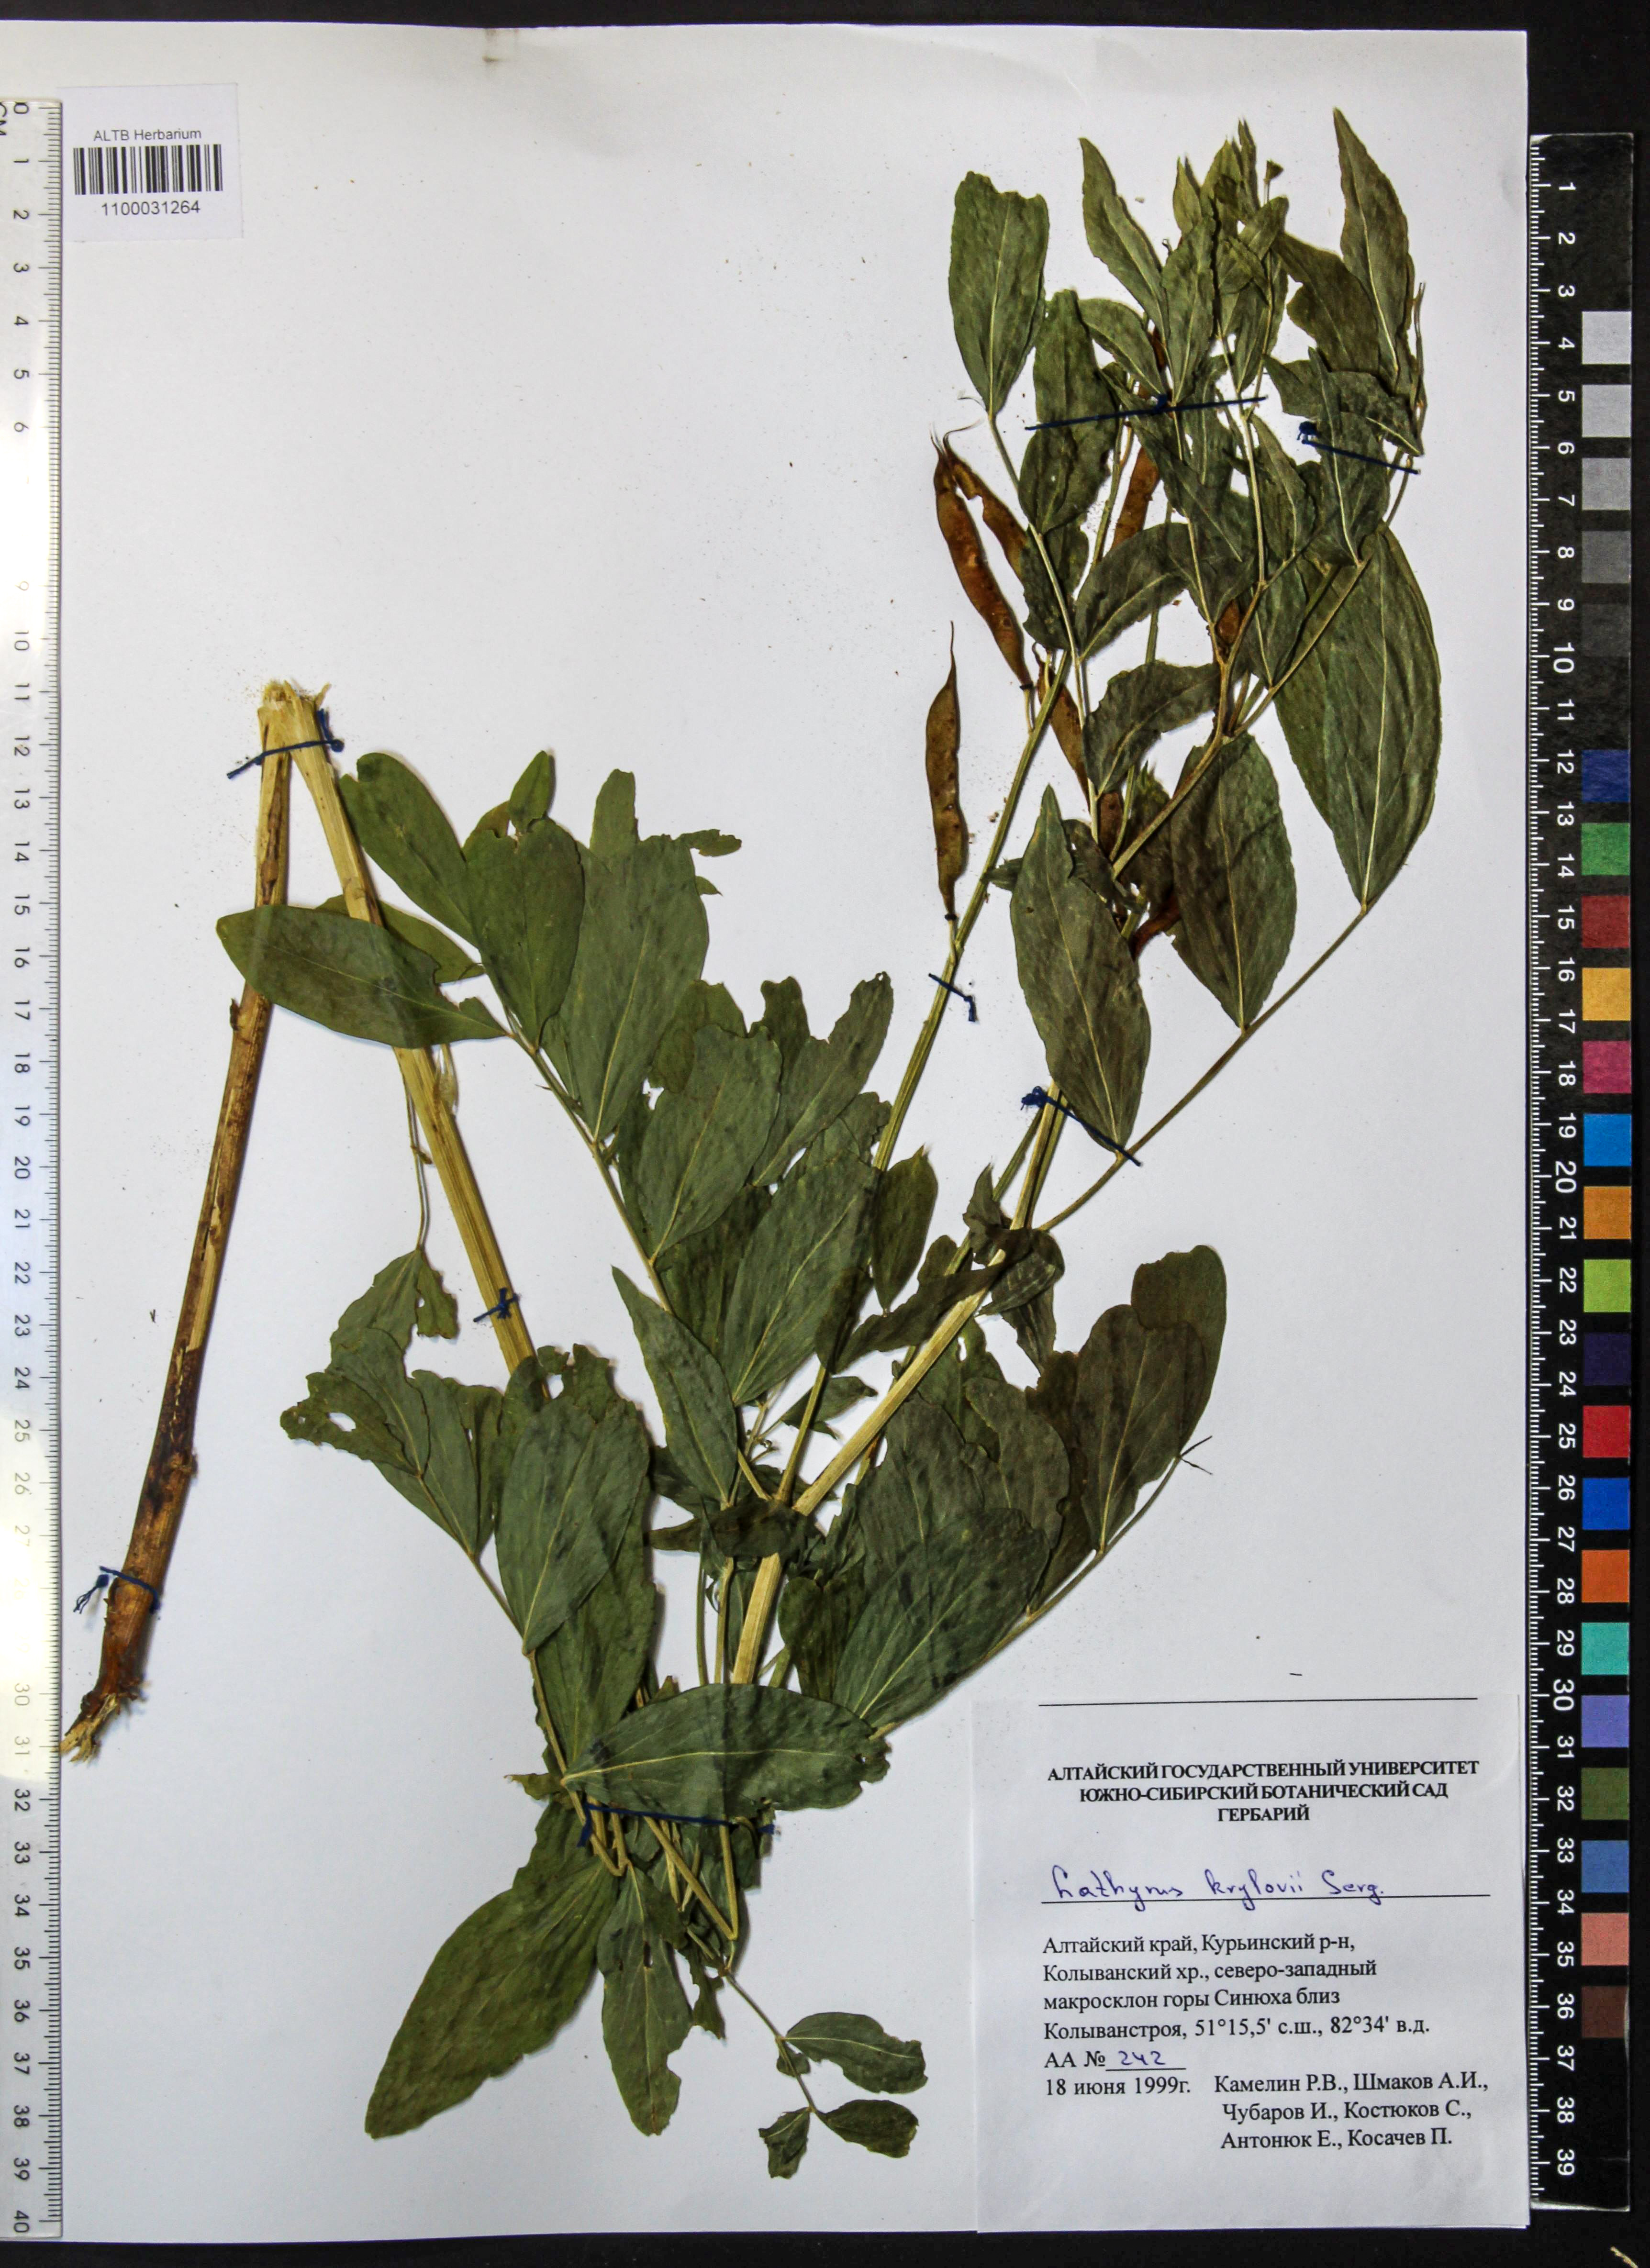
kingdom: Plantae
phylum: Tracheophyta
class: Magnoliopsida
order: Fabales
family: Fabaceae
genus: Lathyrus
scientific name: Lathyrus krylovii
